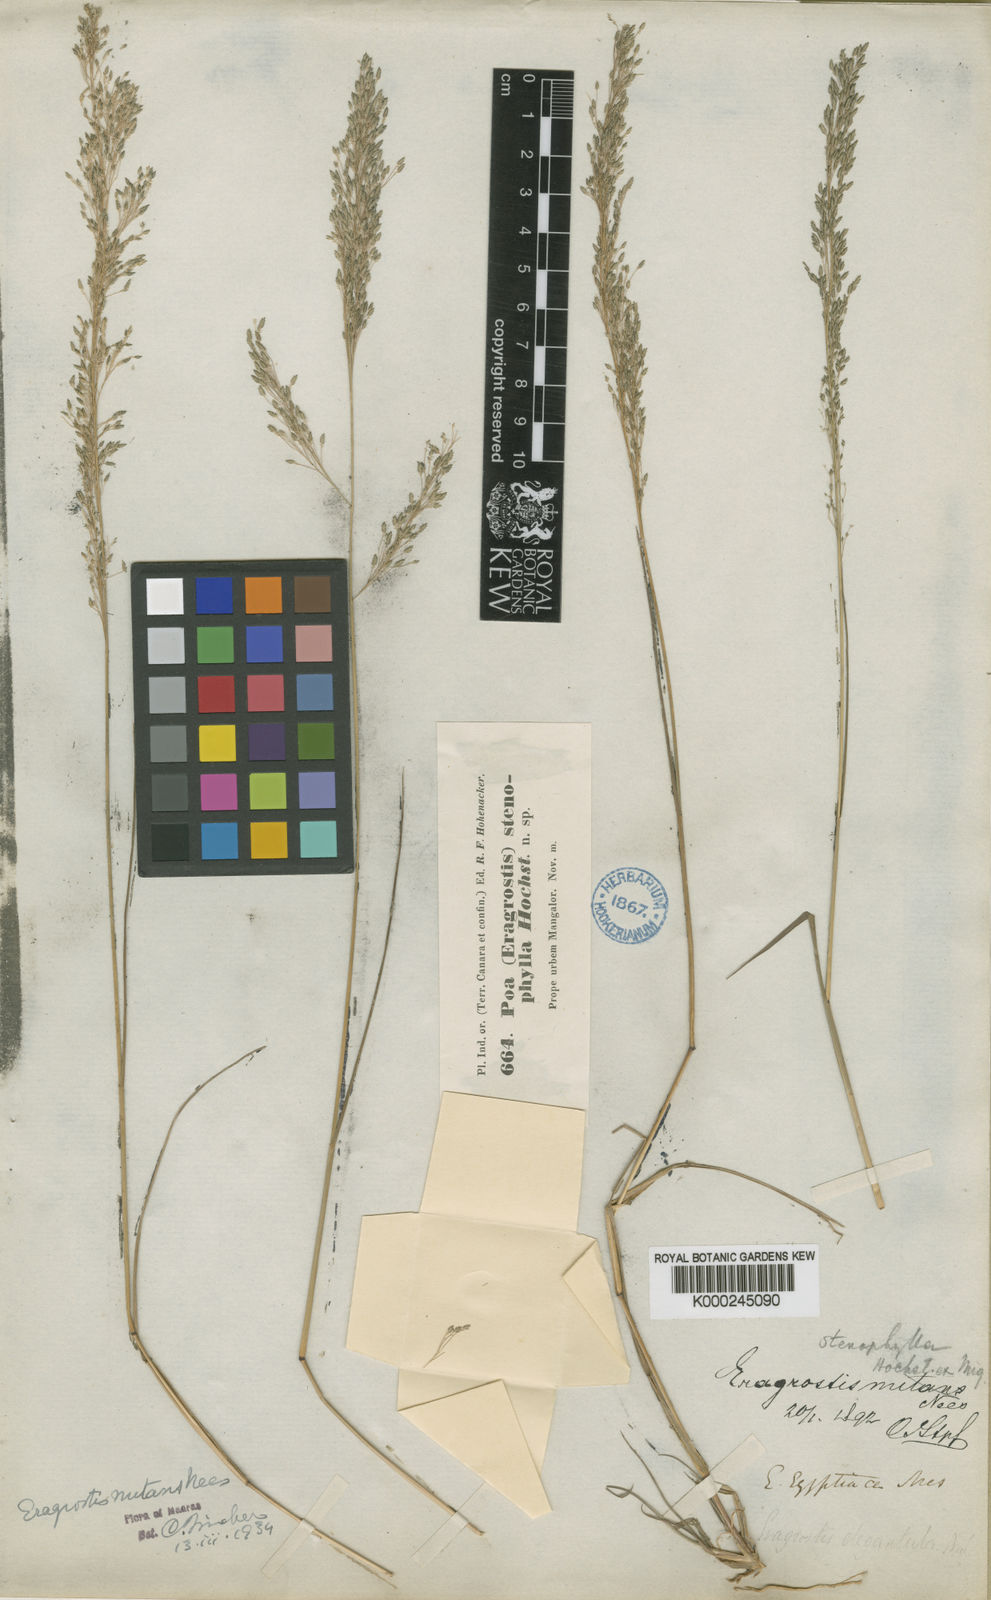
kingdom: Plantae
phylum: Tracheophyta
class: Liliopsida
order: Poales
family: Poaceae
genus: Eragrostis
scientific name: Eragrostis gangetica
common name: Slimflower lovegrass
